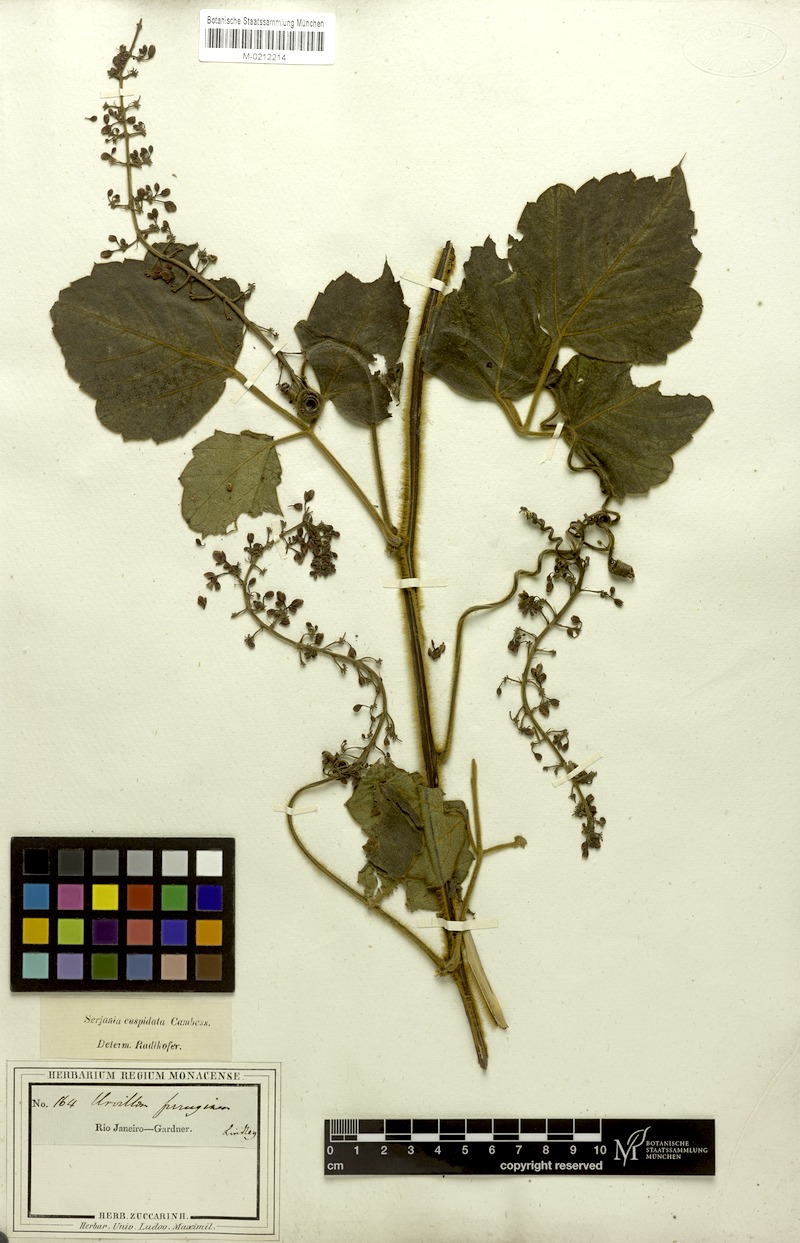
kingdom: Plantae
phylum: Tracheophyta
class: Magnoliopsida
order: Sapindales
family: Sapindaceae
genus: Serjania
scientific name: Serjania ferruginea
